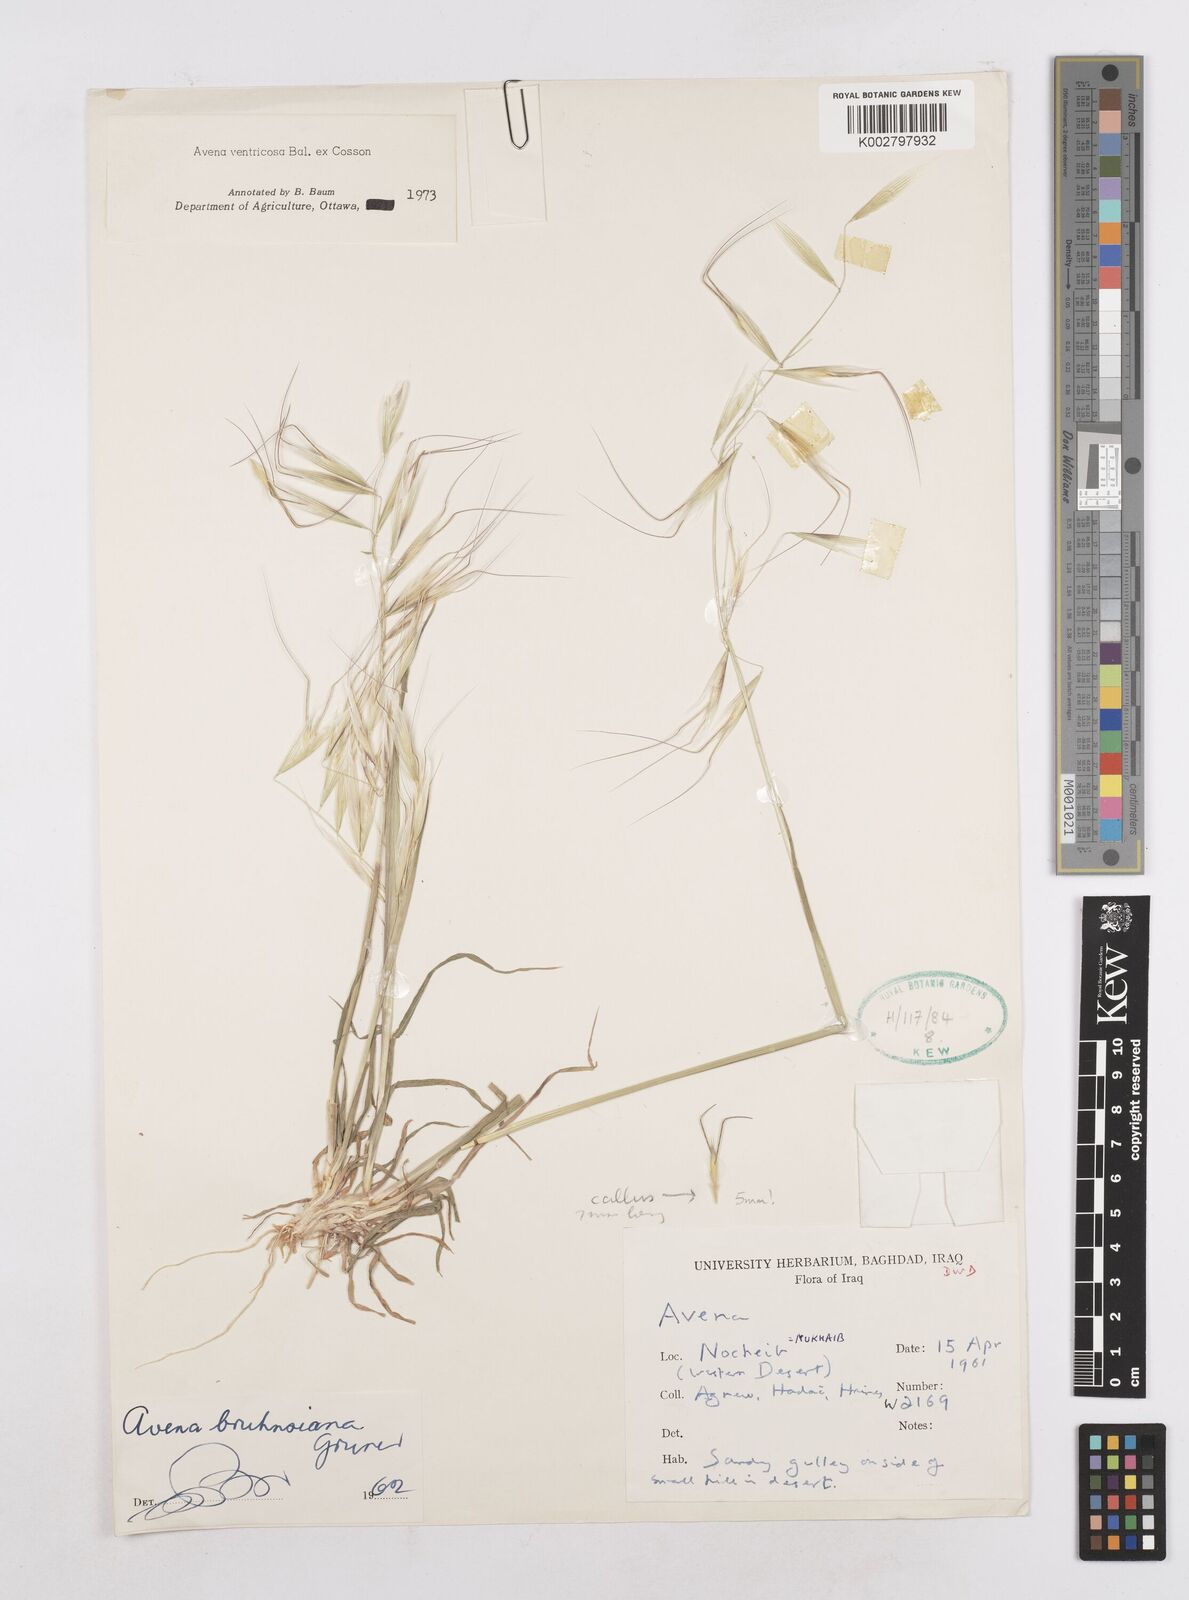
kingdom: Plantae
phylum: Tracheophyta
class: Liliopsida
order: Poales
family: Poaceae
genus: Avena
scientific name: Avena ventricosa
